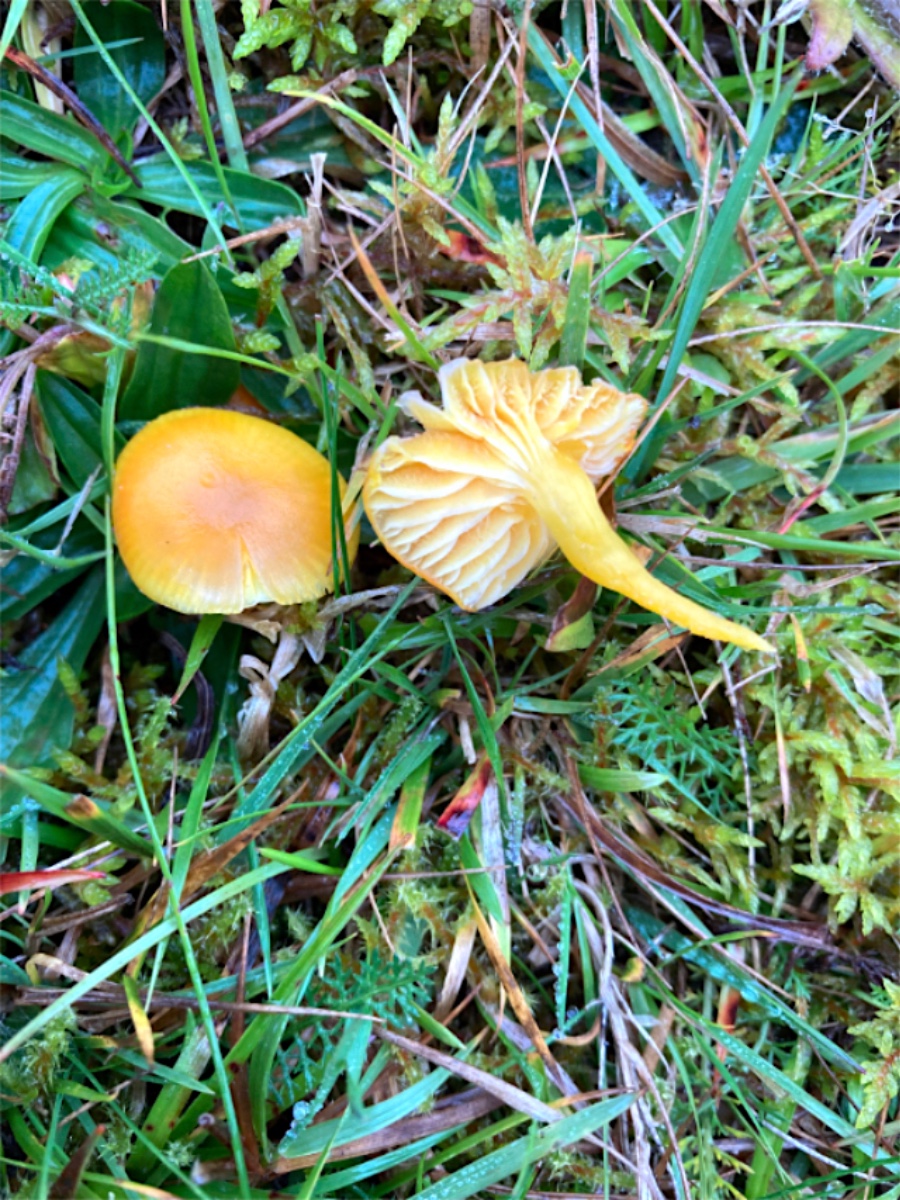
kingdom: Fungi
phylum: Basidiomycota
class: Agaricomycetes
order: Agaricales
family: Hygrophoraceae
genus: Hygrocybe
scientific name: Hygrocybe ceracea
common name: voksgul vokshat
